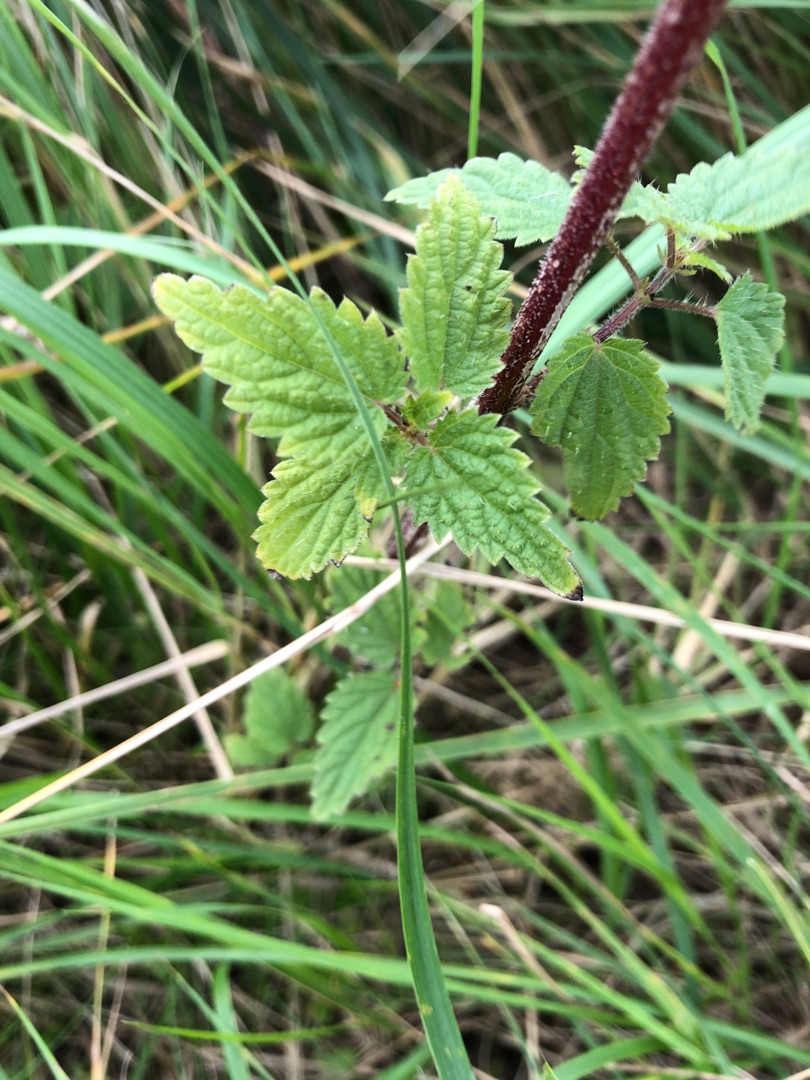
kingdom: Plantae
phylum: Tracheophyta
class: Magnoliopsida
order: Rosales
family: Urticaceae
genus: Urtica
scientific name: Urtica dioica
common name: Stor nælde
